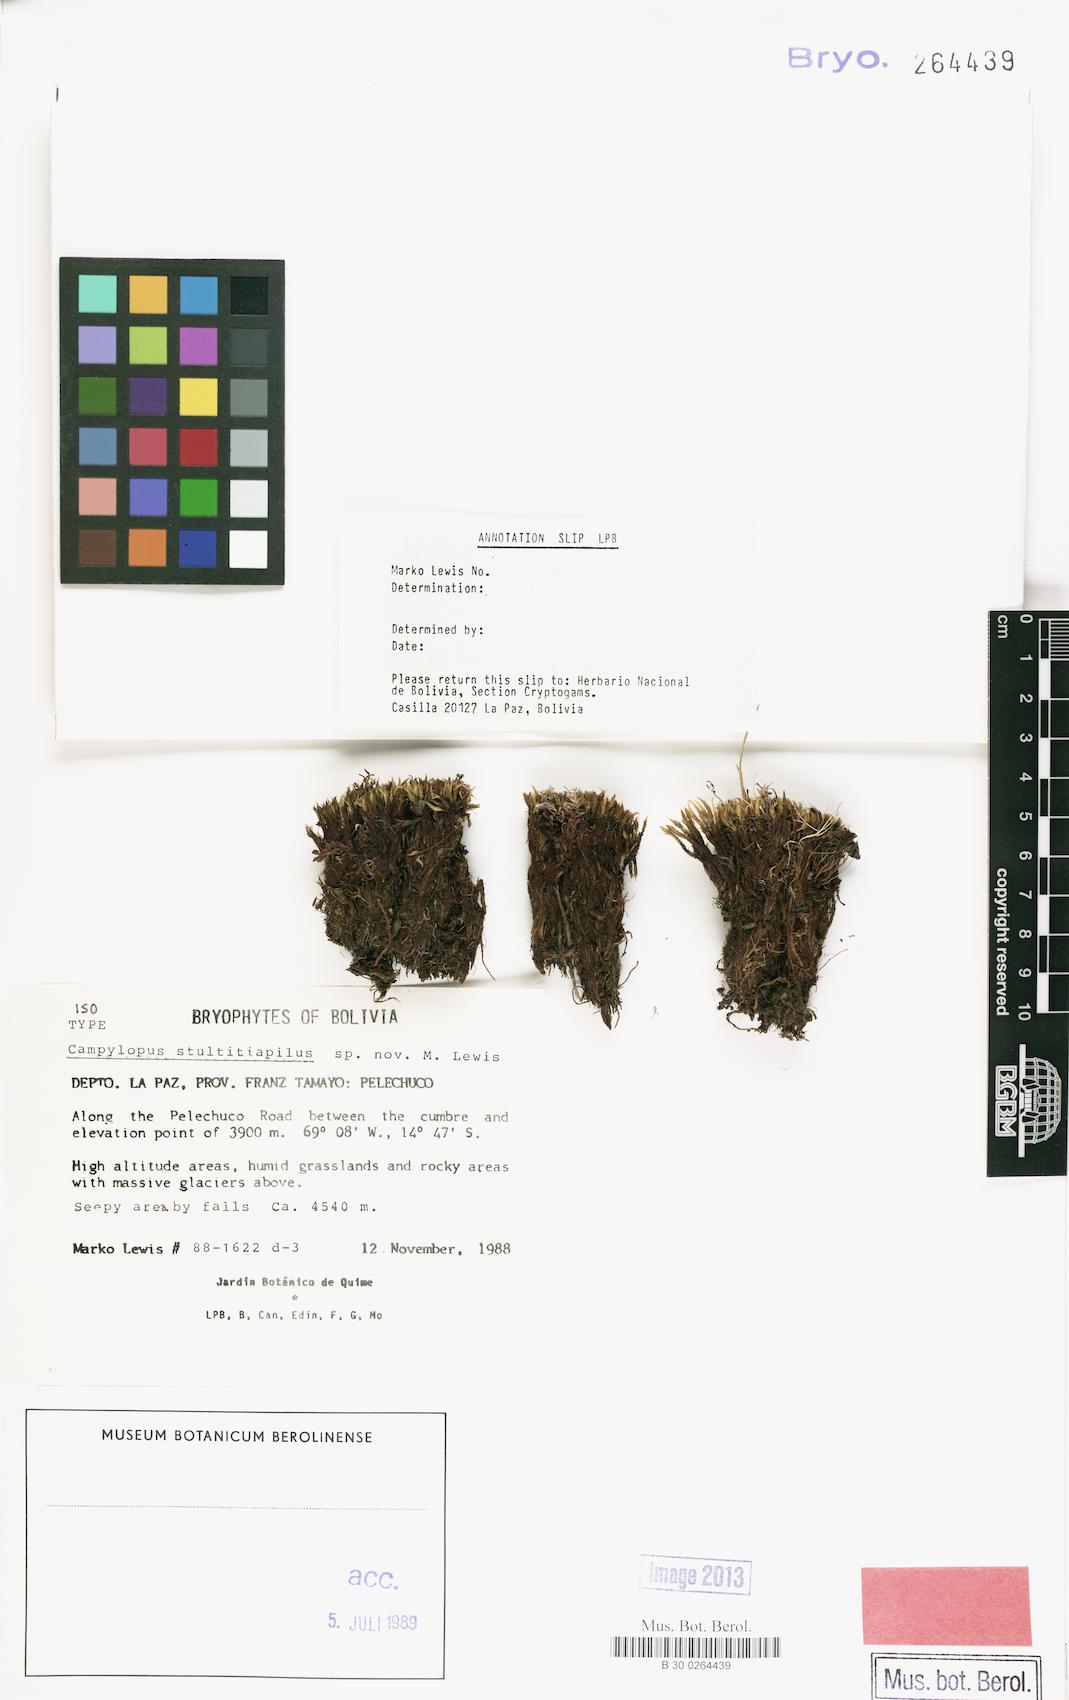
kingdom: Plantae
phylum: Bryophyta
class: Bryopsida
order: Dicranales
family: Dicranaceae
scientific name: Dicranaceae
